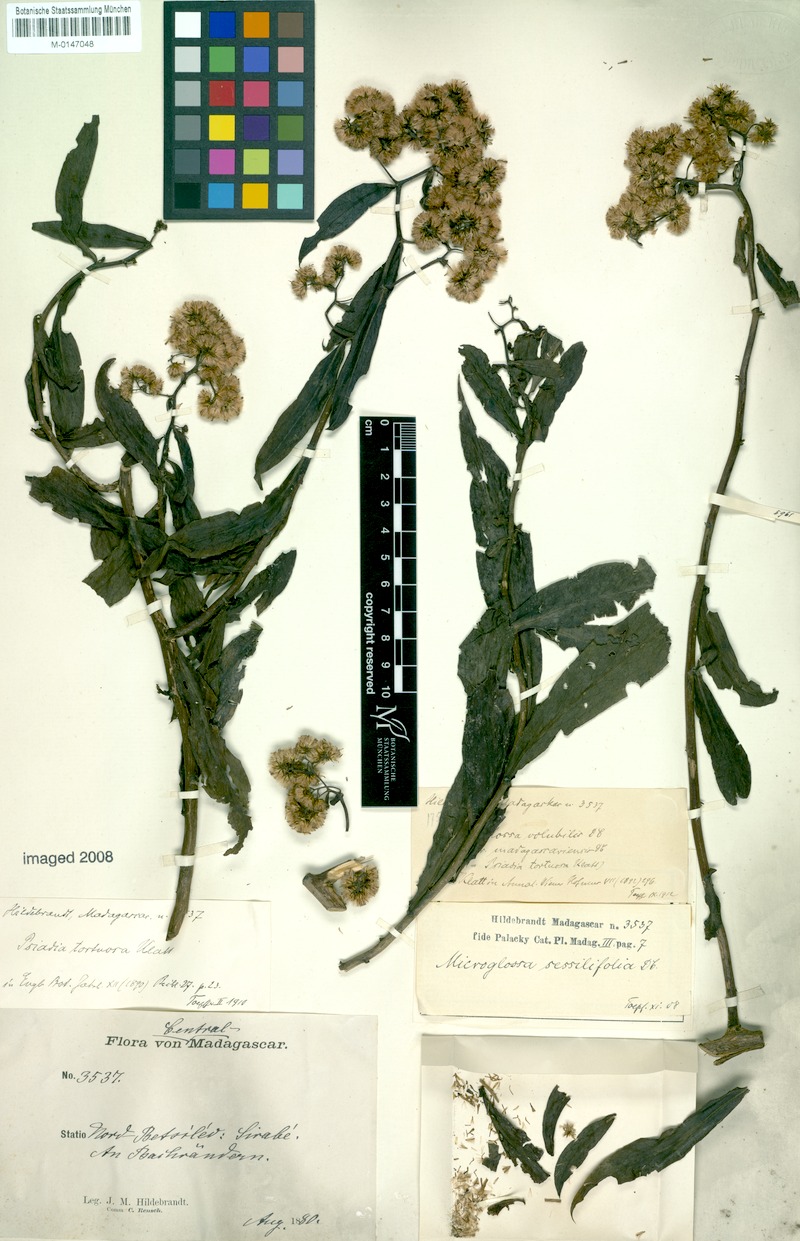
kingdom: Plantae
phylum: Tracheophyta
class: Magnoliopsida
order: Asterales
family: Asteraceae
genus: Psiadia
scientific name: Psiadia lucida
